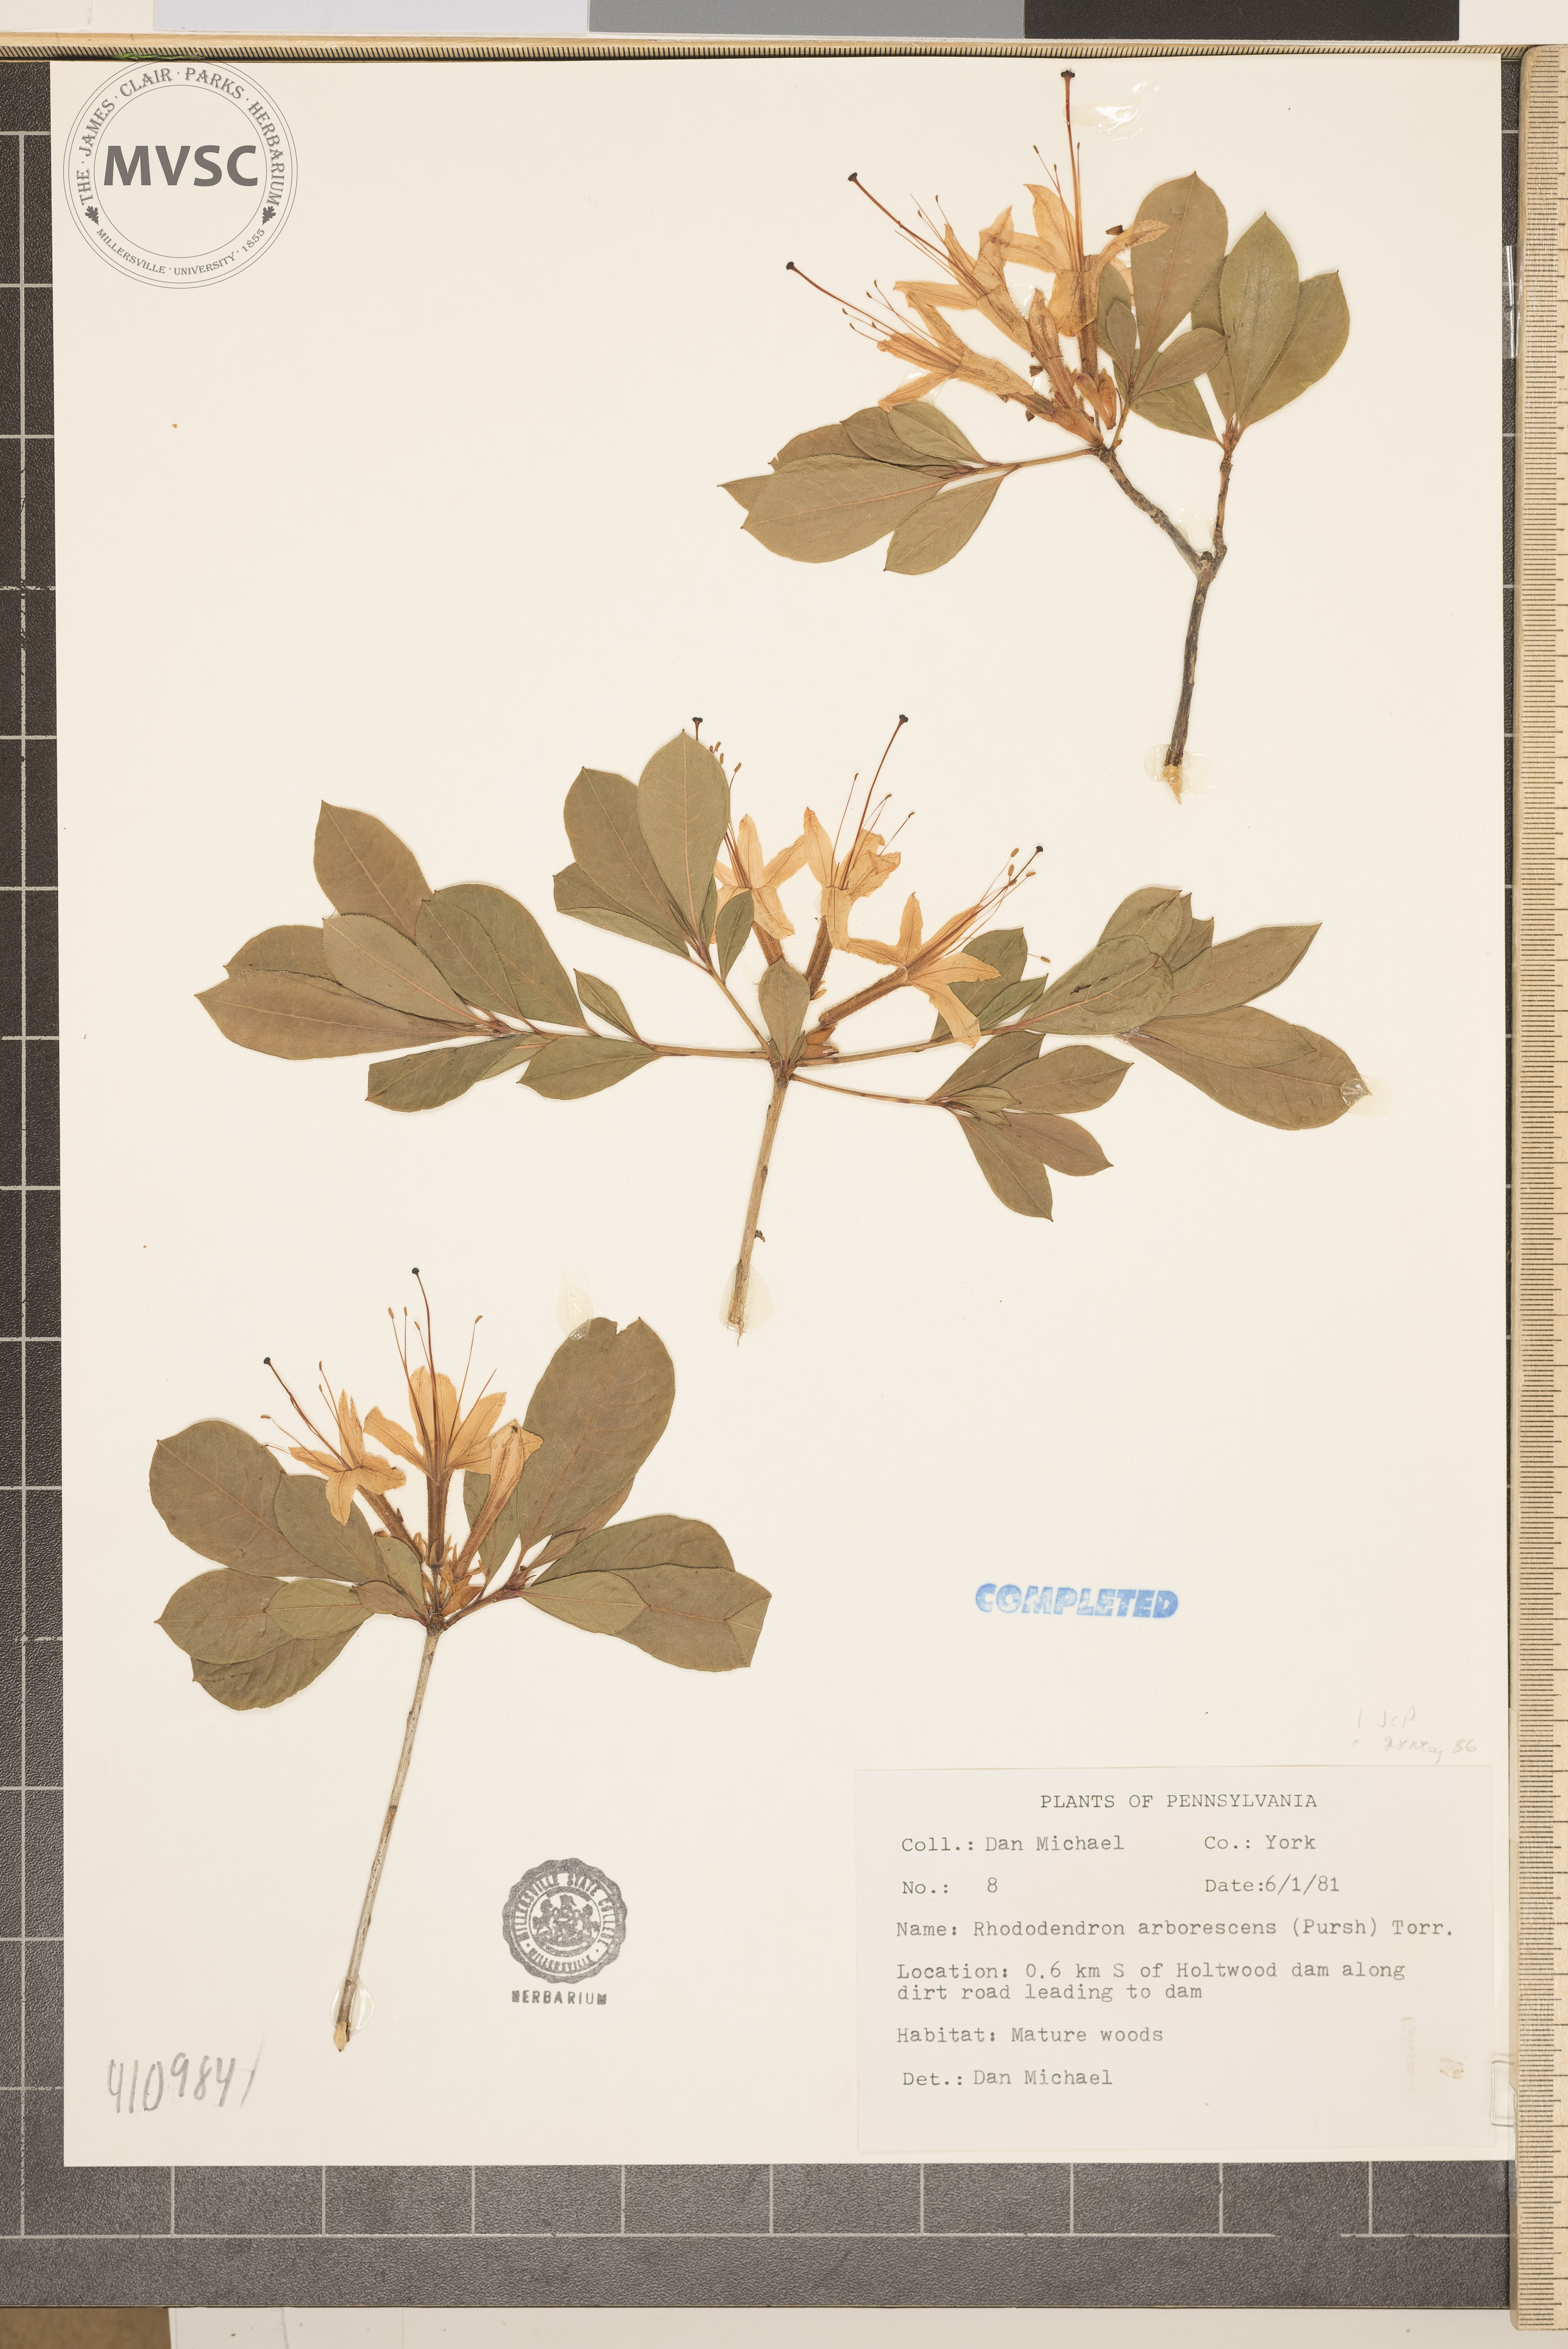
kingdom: Plantae
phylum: Tracheophyta
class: Magnoliopsida
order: Ericales
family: Ericaceae
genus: Rhododendron
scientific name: Rhododendron arborescens
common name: Sweet azalea
